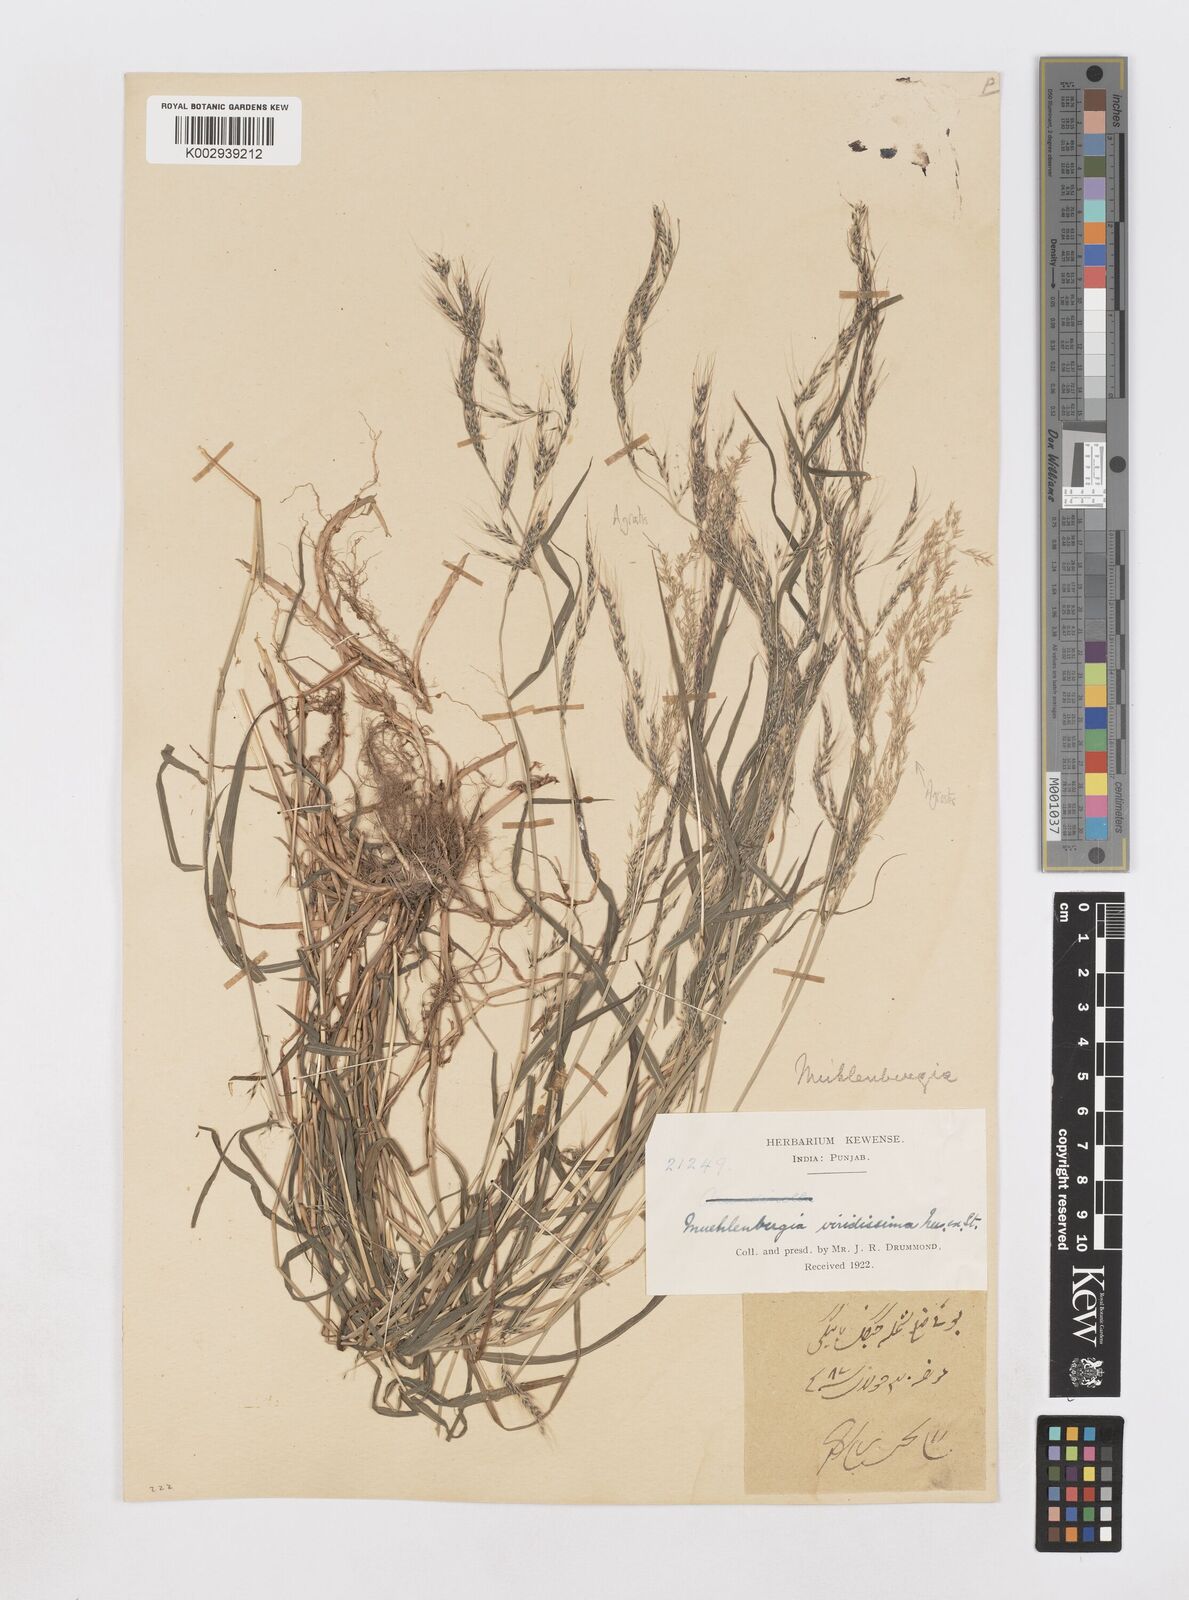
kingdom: Plantae
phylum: Tracheophyta
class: Liliopsida
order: Poales
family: Poaceae
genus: Muhlenbergia
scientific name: Muhlenbergia huegelii
